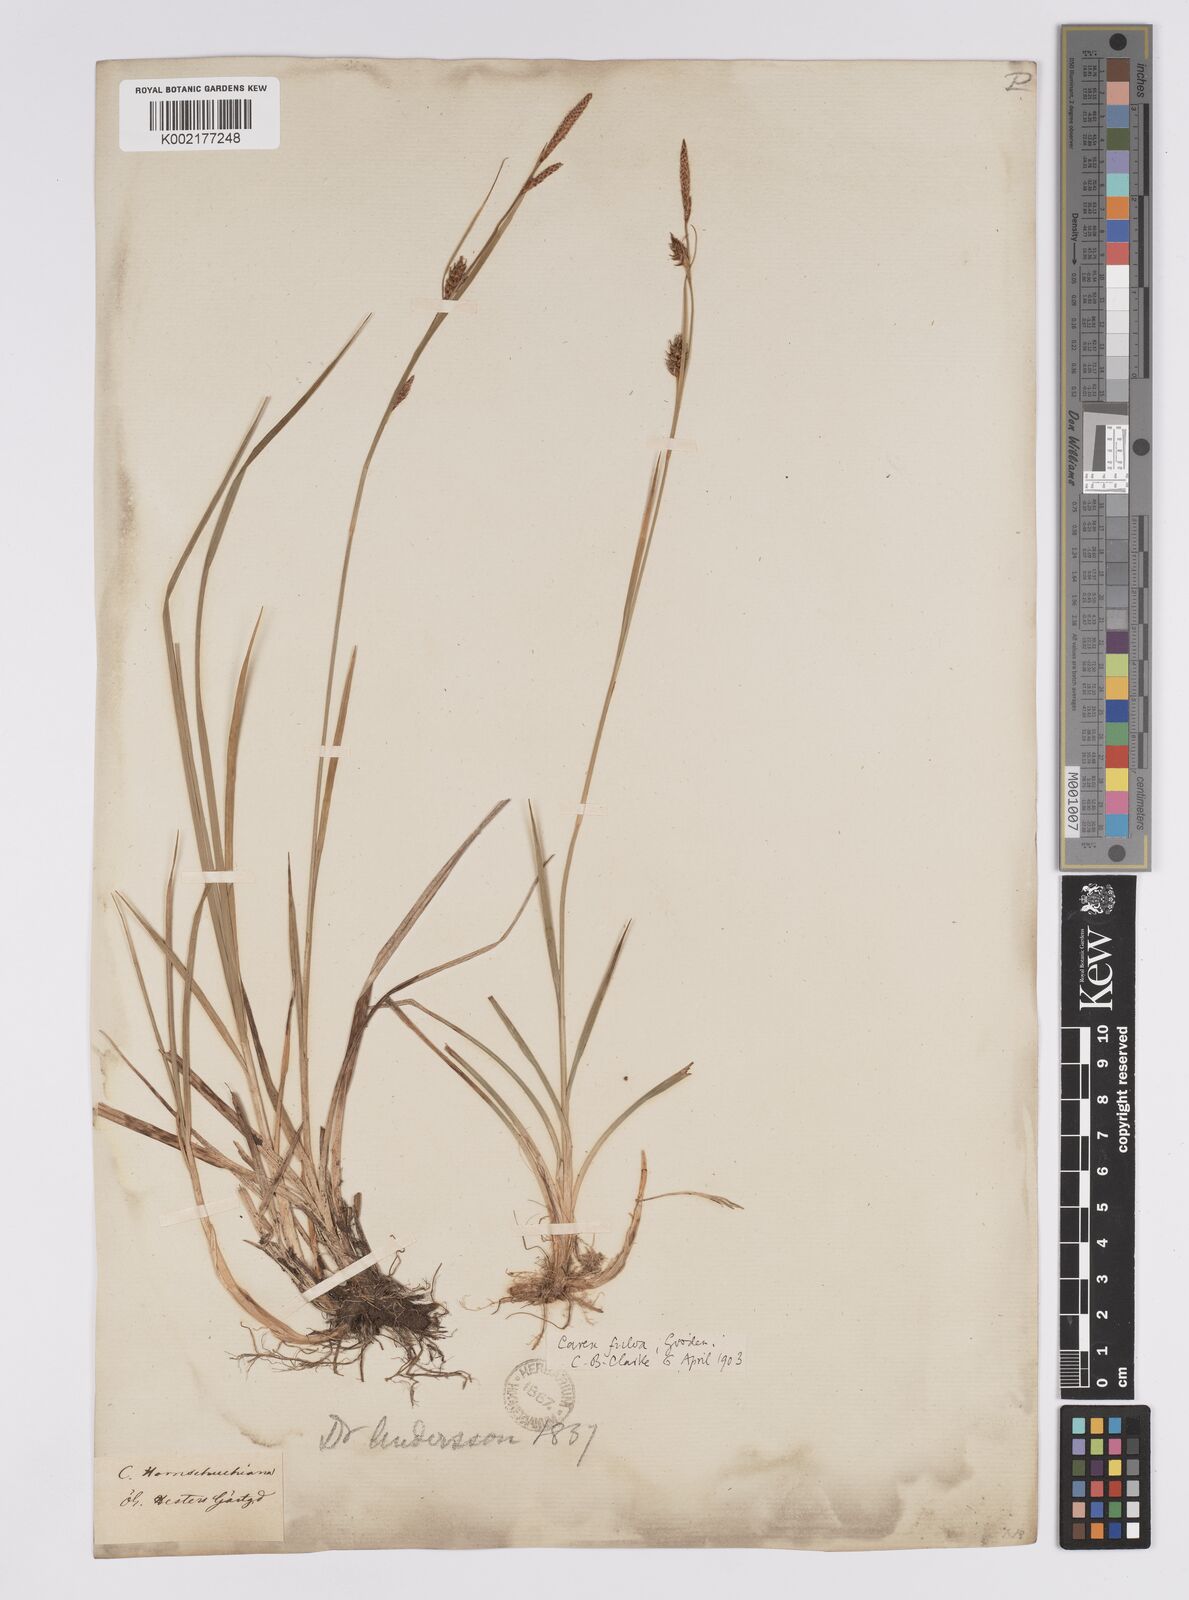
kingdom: Plantae
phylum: Tracheophyta
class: Liliopsida
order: Poales
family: Cyperaceae
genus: Carex
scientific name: Carex hostiana
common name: Tawny sedge
